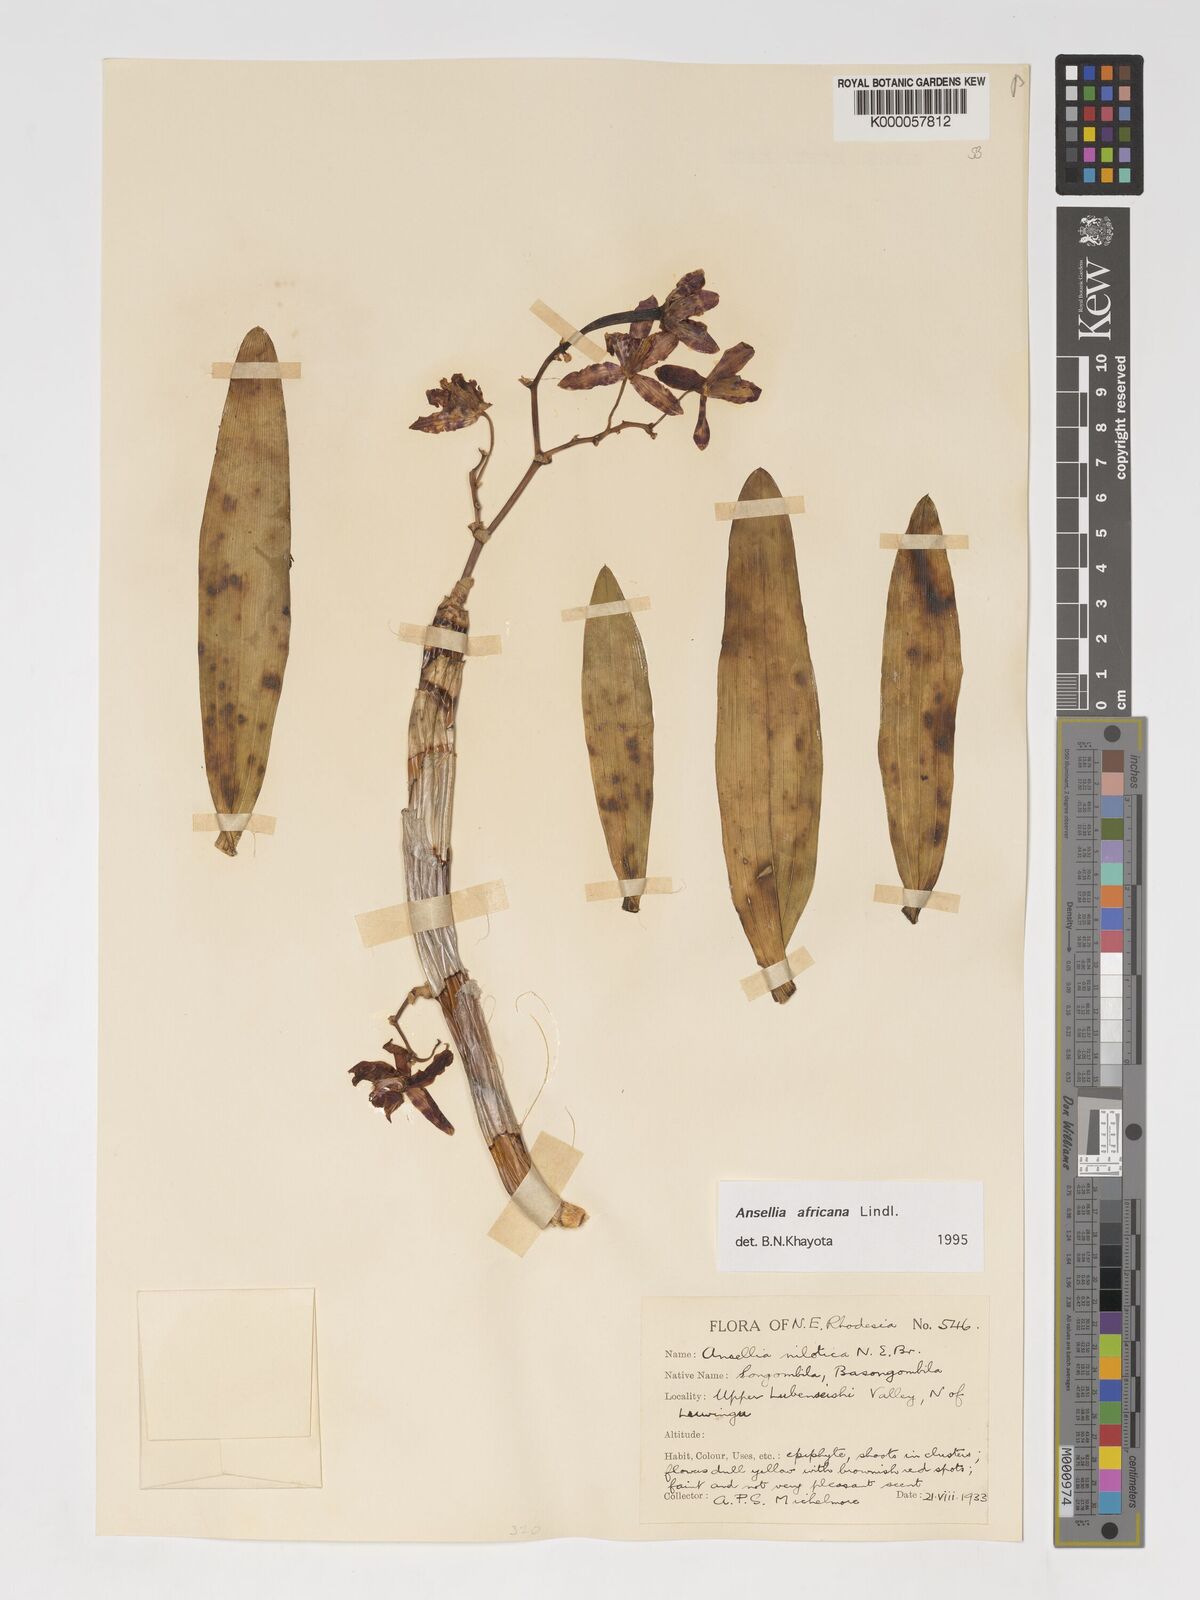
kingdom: Plantae
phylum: Tracheophyta
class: Liliopsida
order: Asparagales
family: Orchidaceae
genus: Ansellia
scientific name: Ansellia africana
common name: African ansellia
